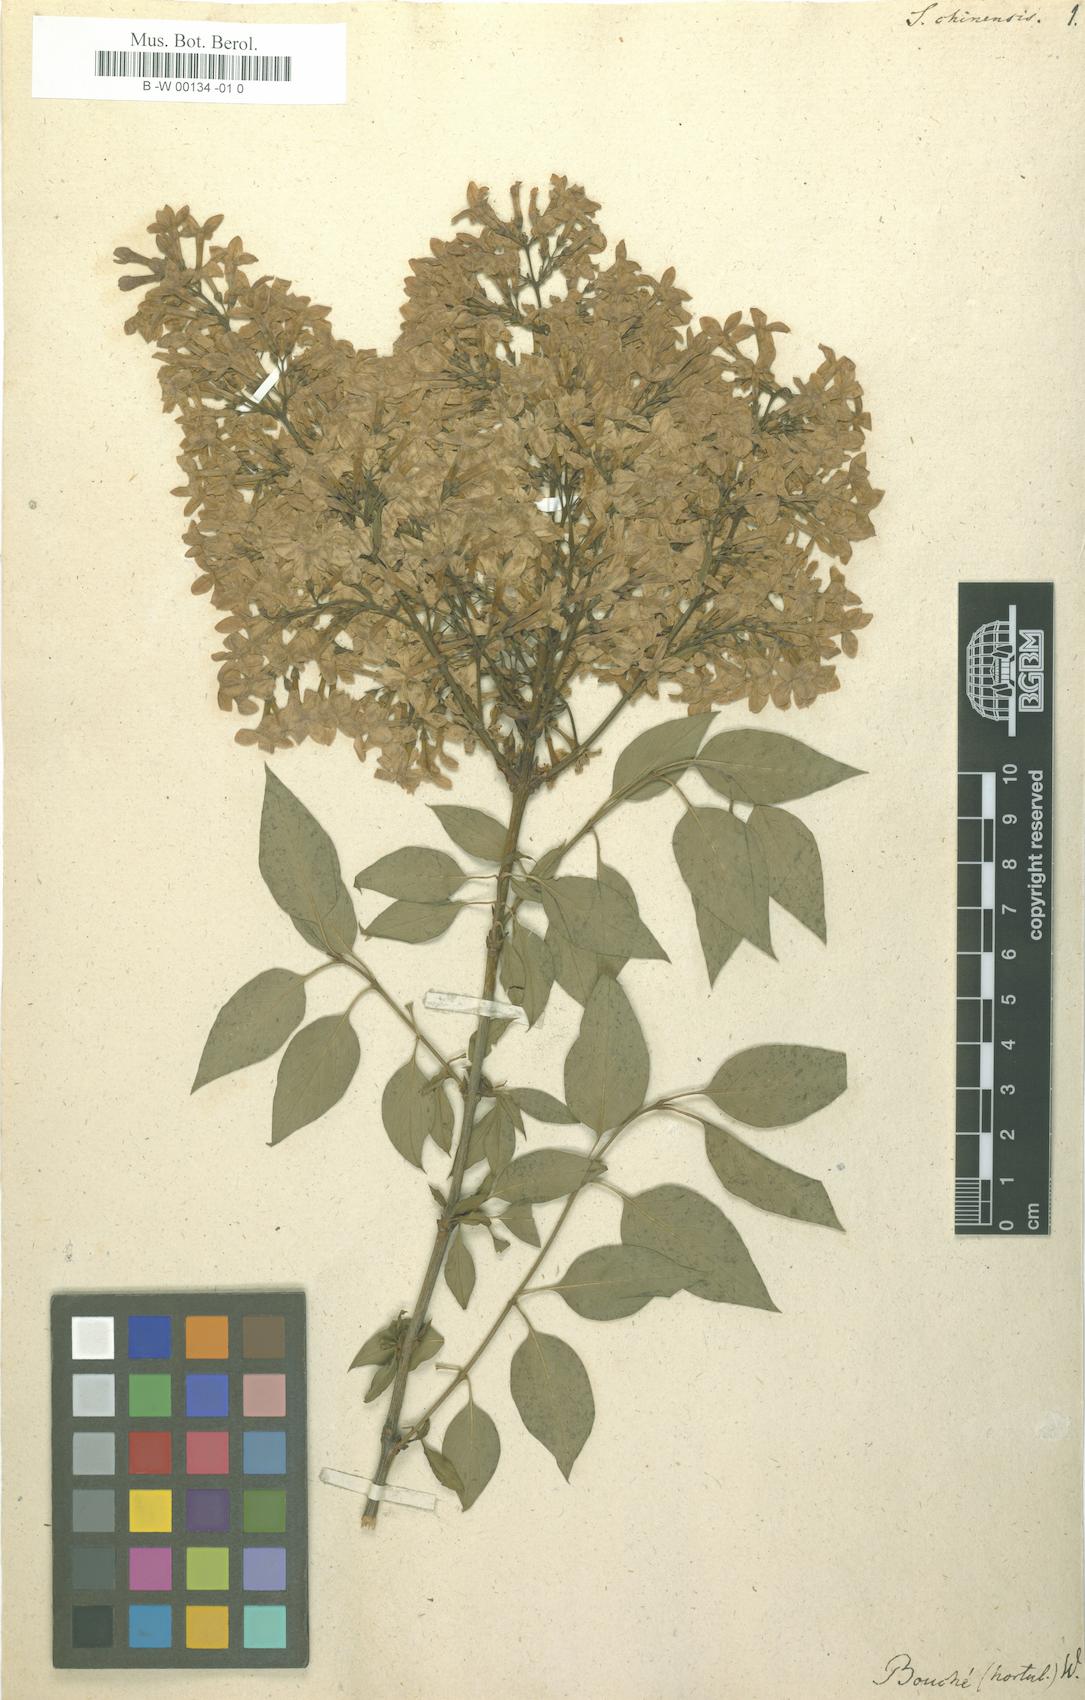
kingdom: Plantae
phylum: Tracheophyta
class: Magnoliopsida
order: Lamiales
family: Oleaceae
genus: Syringa
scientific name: Syringa chinensis
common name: Chinese lilac
